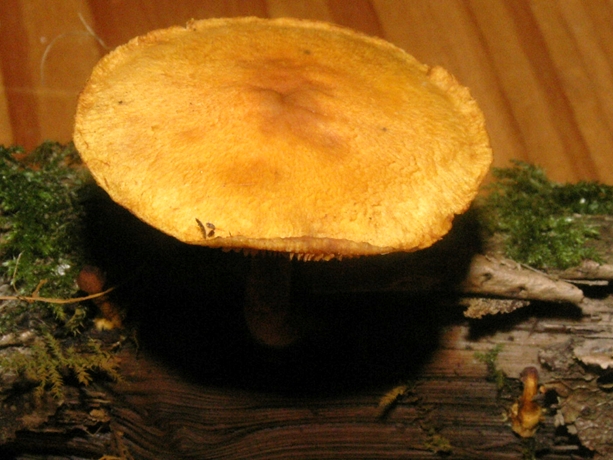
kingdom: Fungi
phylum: Basidiomycota
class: Agaricomycetes
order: Agaricales
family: Strophariaceae
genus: Pholiota
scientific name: Pholiota tuberculosa
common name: finskællet skælhat
